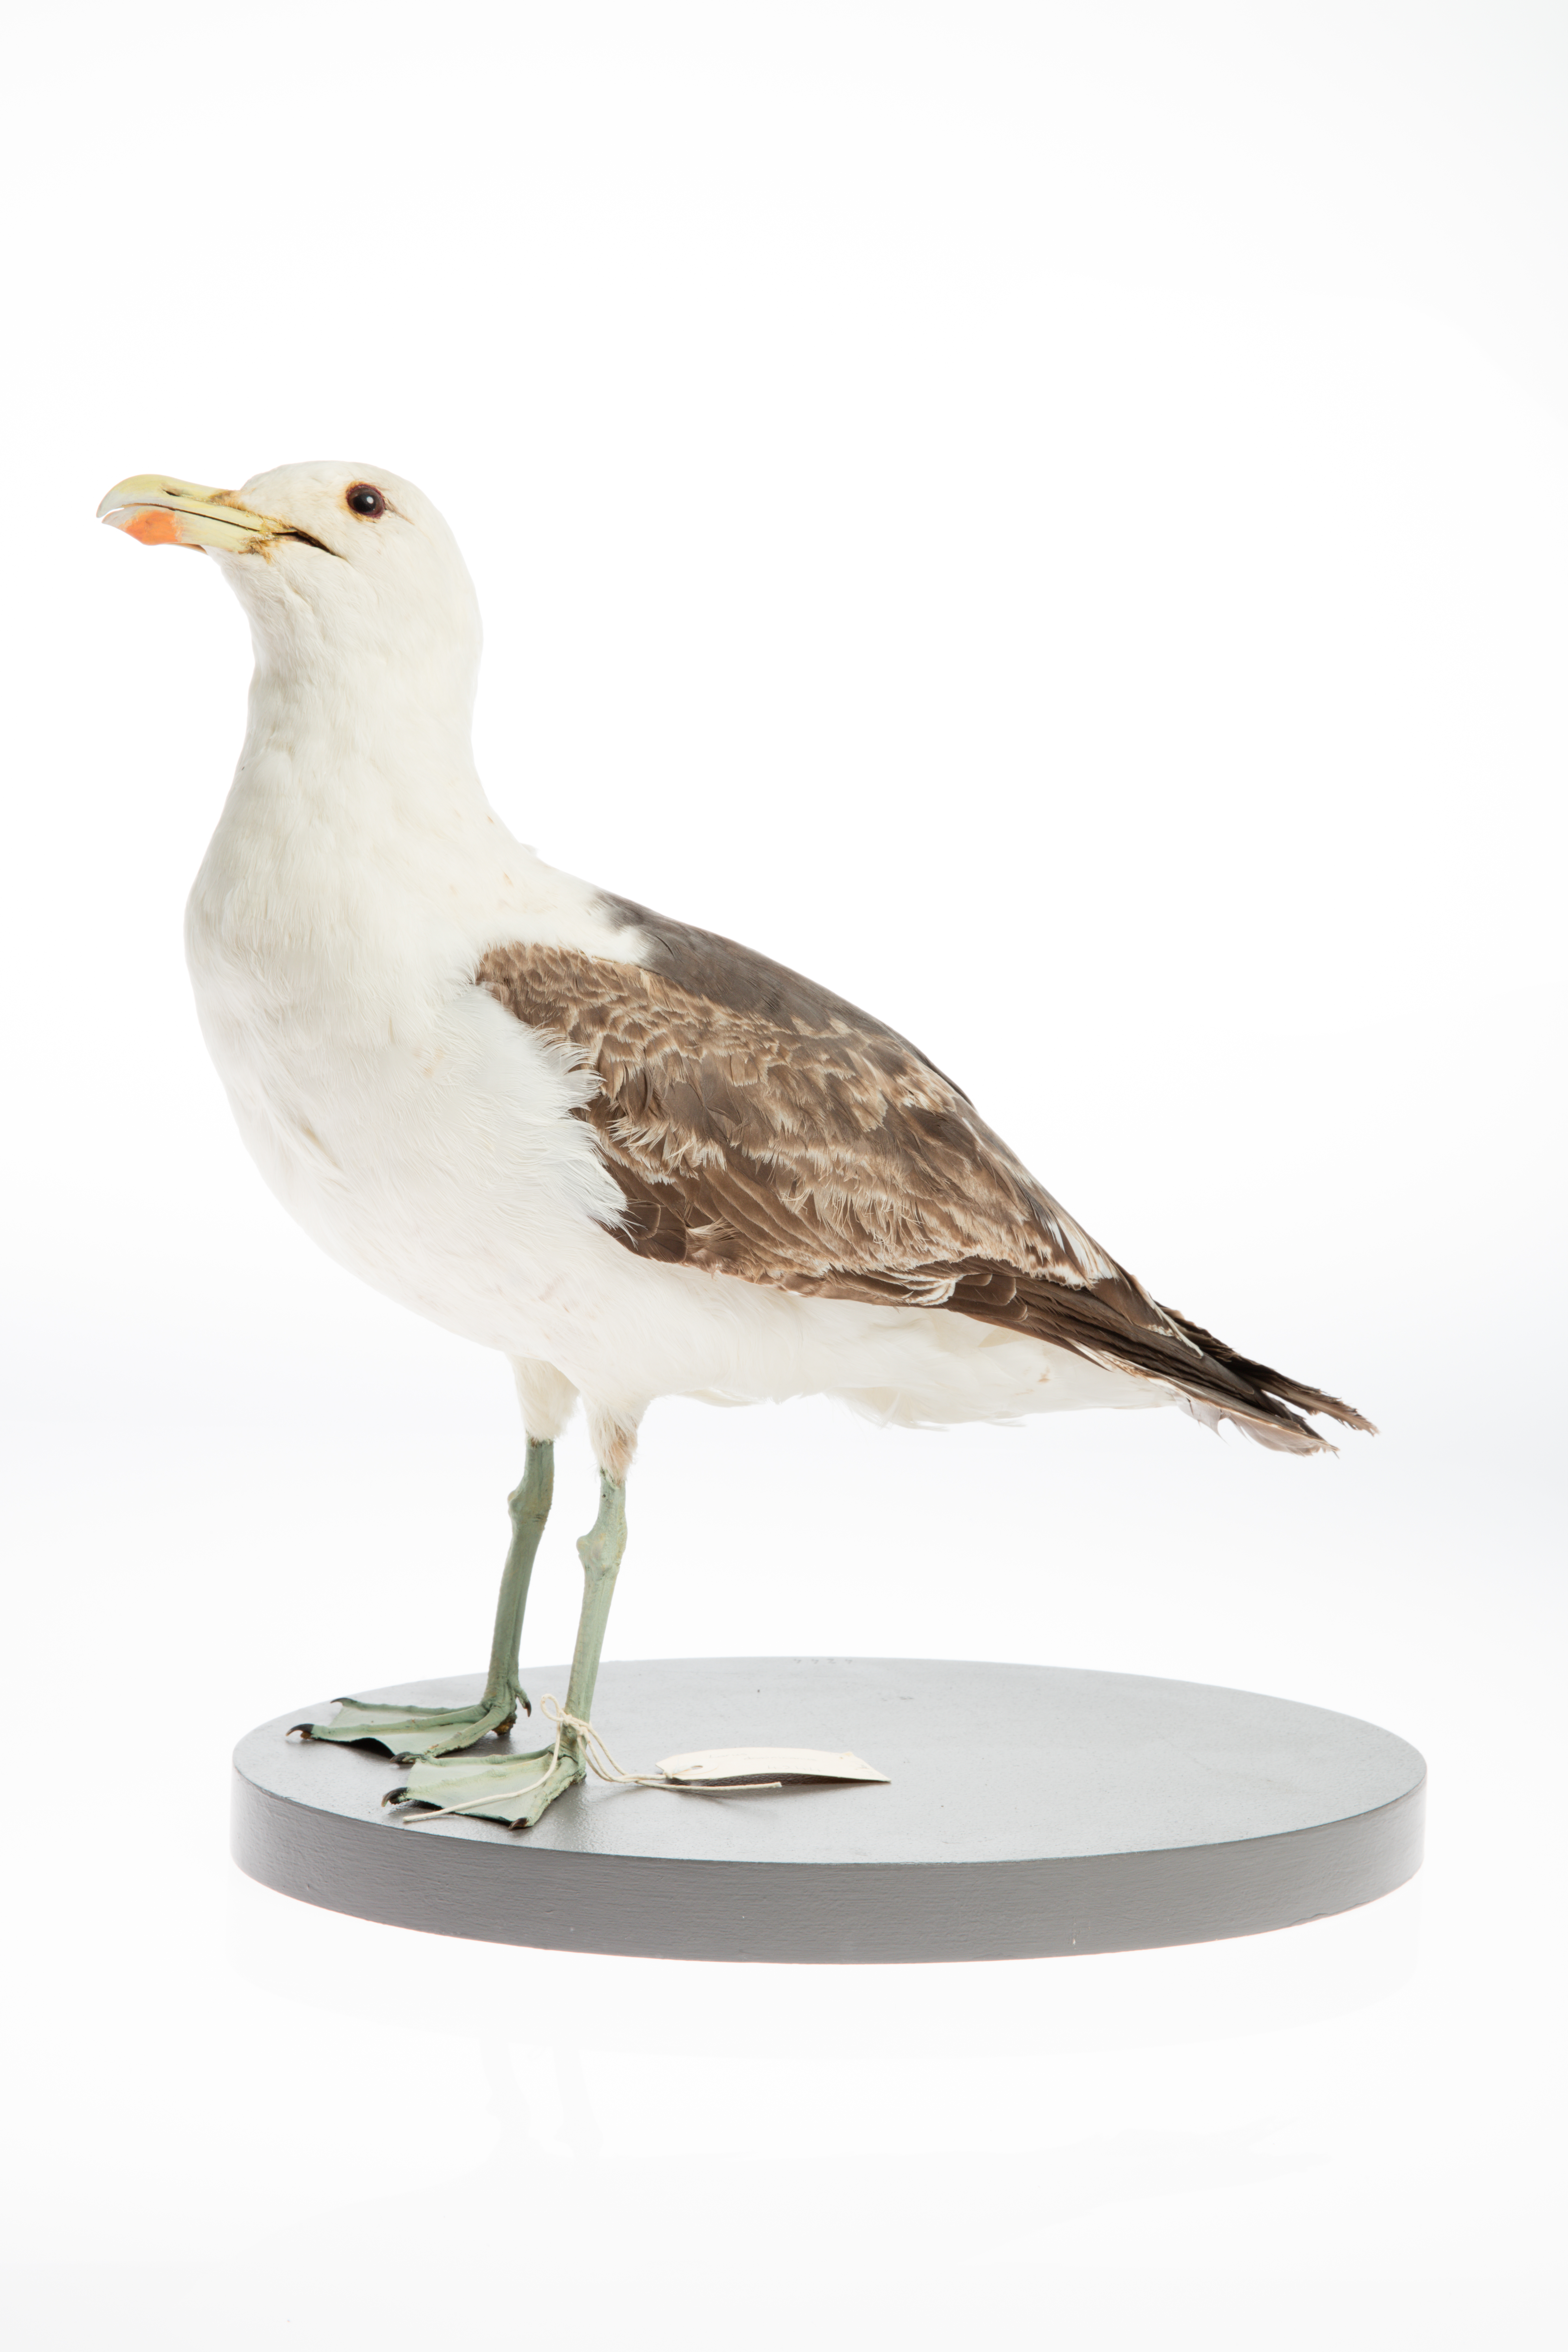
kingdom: Animalia
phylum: Chordata
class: Aves
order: Charadriiformes
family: Laridae
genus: Larus
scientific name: Larus dominicanus
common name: Kelp gull
